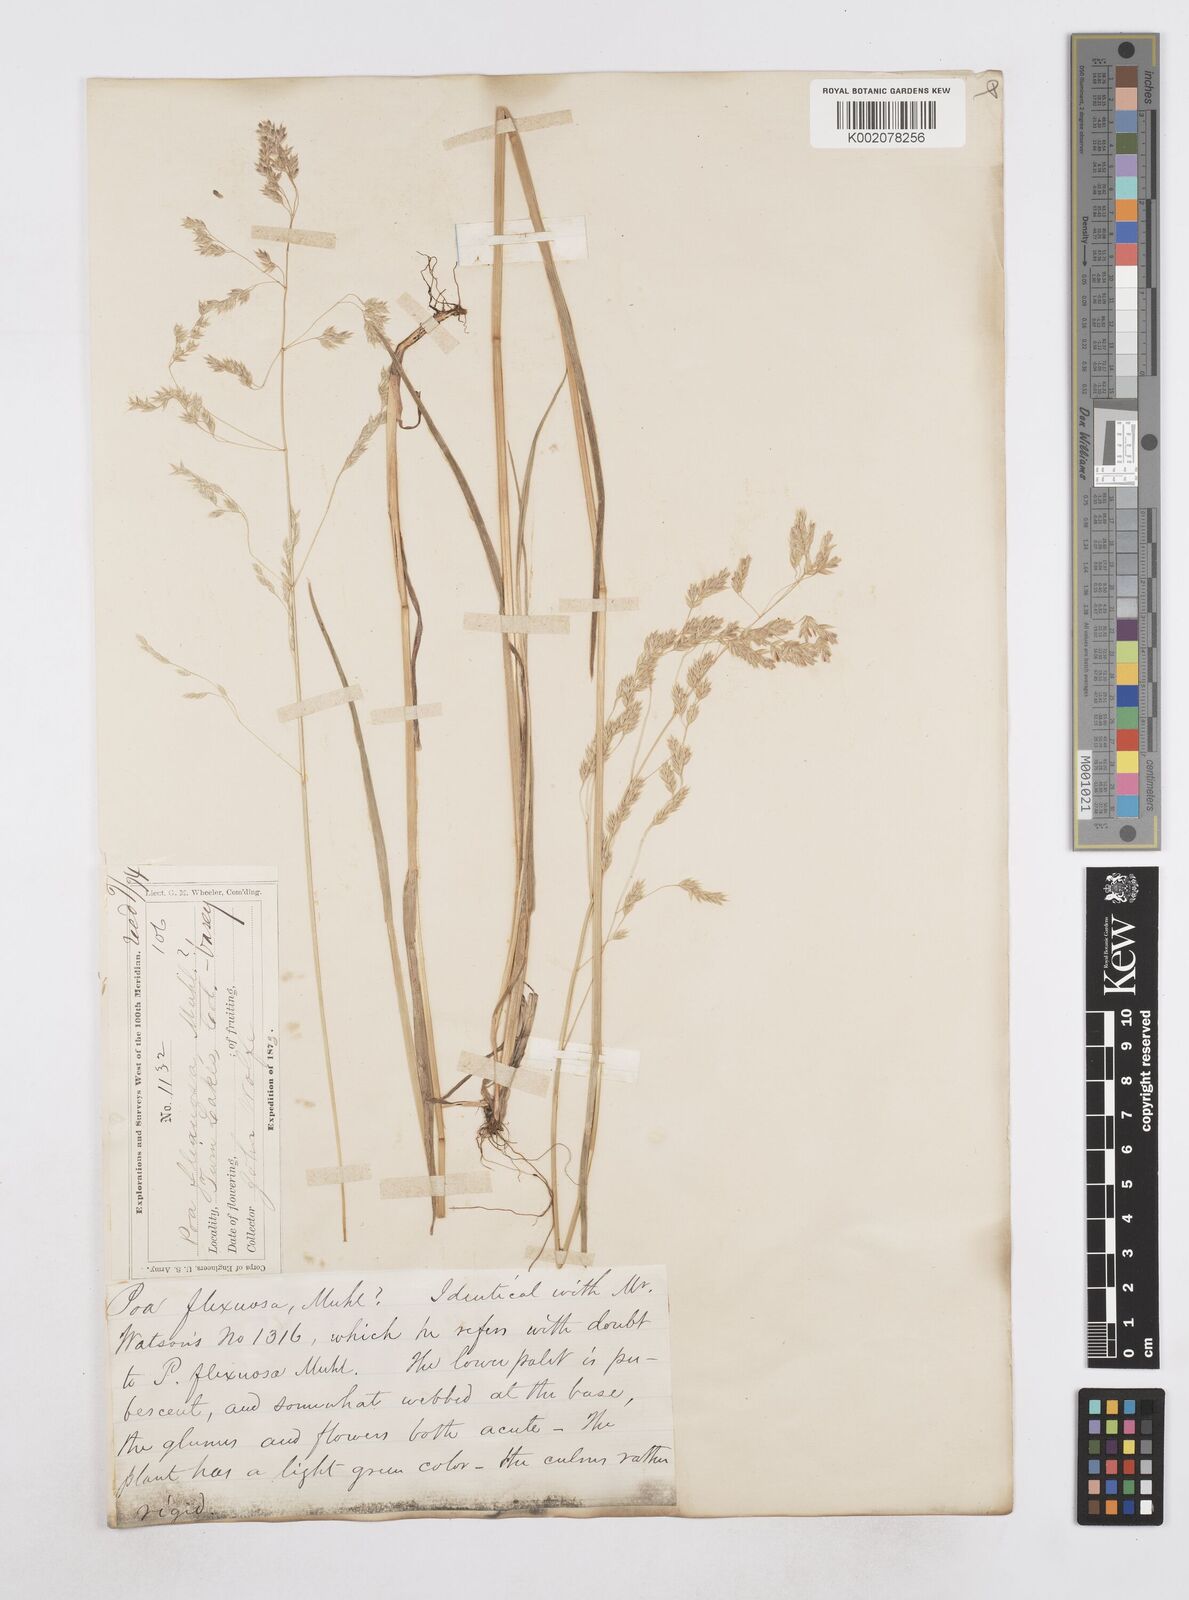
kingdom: Plantae
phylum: Tracheophyta
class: Liliopsida
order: Poales
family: Poaceae
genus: Poa
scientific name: Poa
